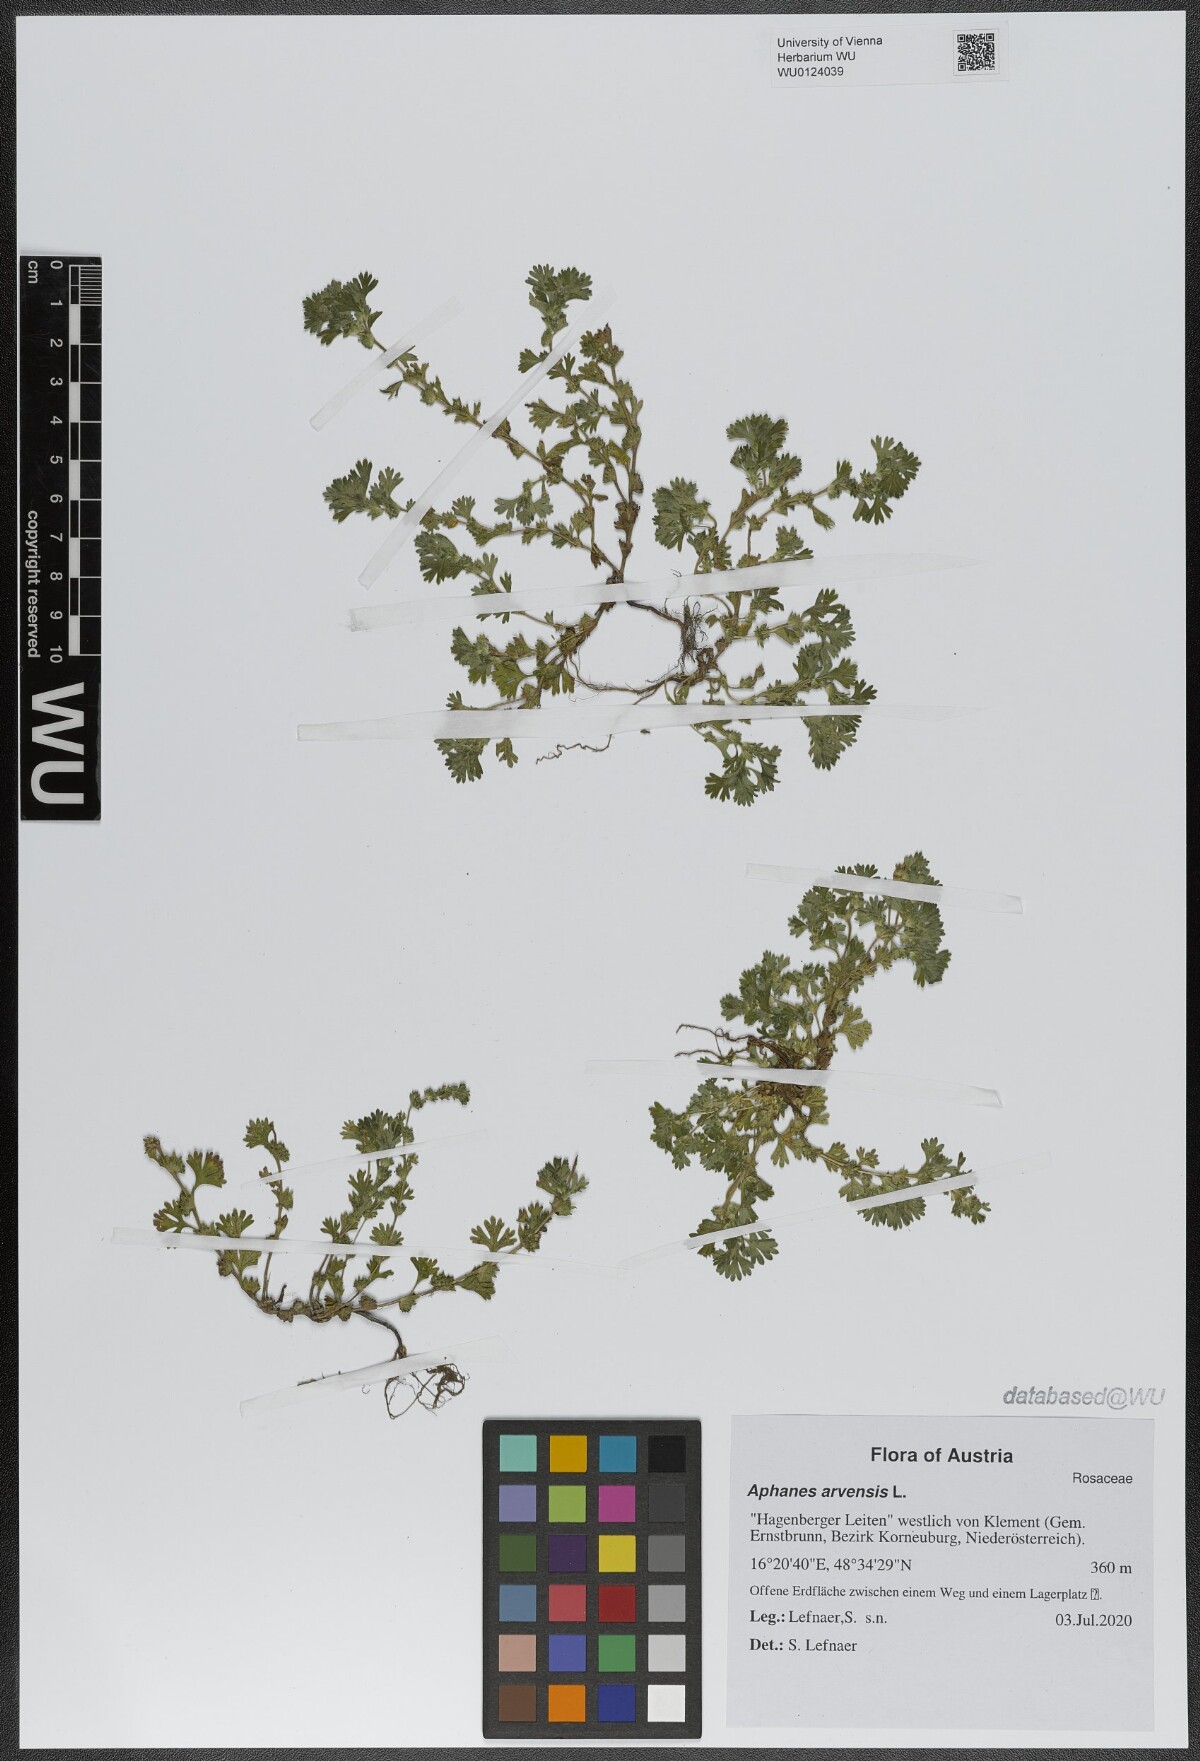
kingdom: Plantae
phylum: Tracheophyta
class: Magnoliopsida
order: Rosales
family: Rosaceae
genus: Aphanes
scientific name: Aphanes arvensis
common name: Parsley-piert
